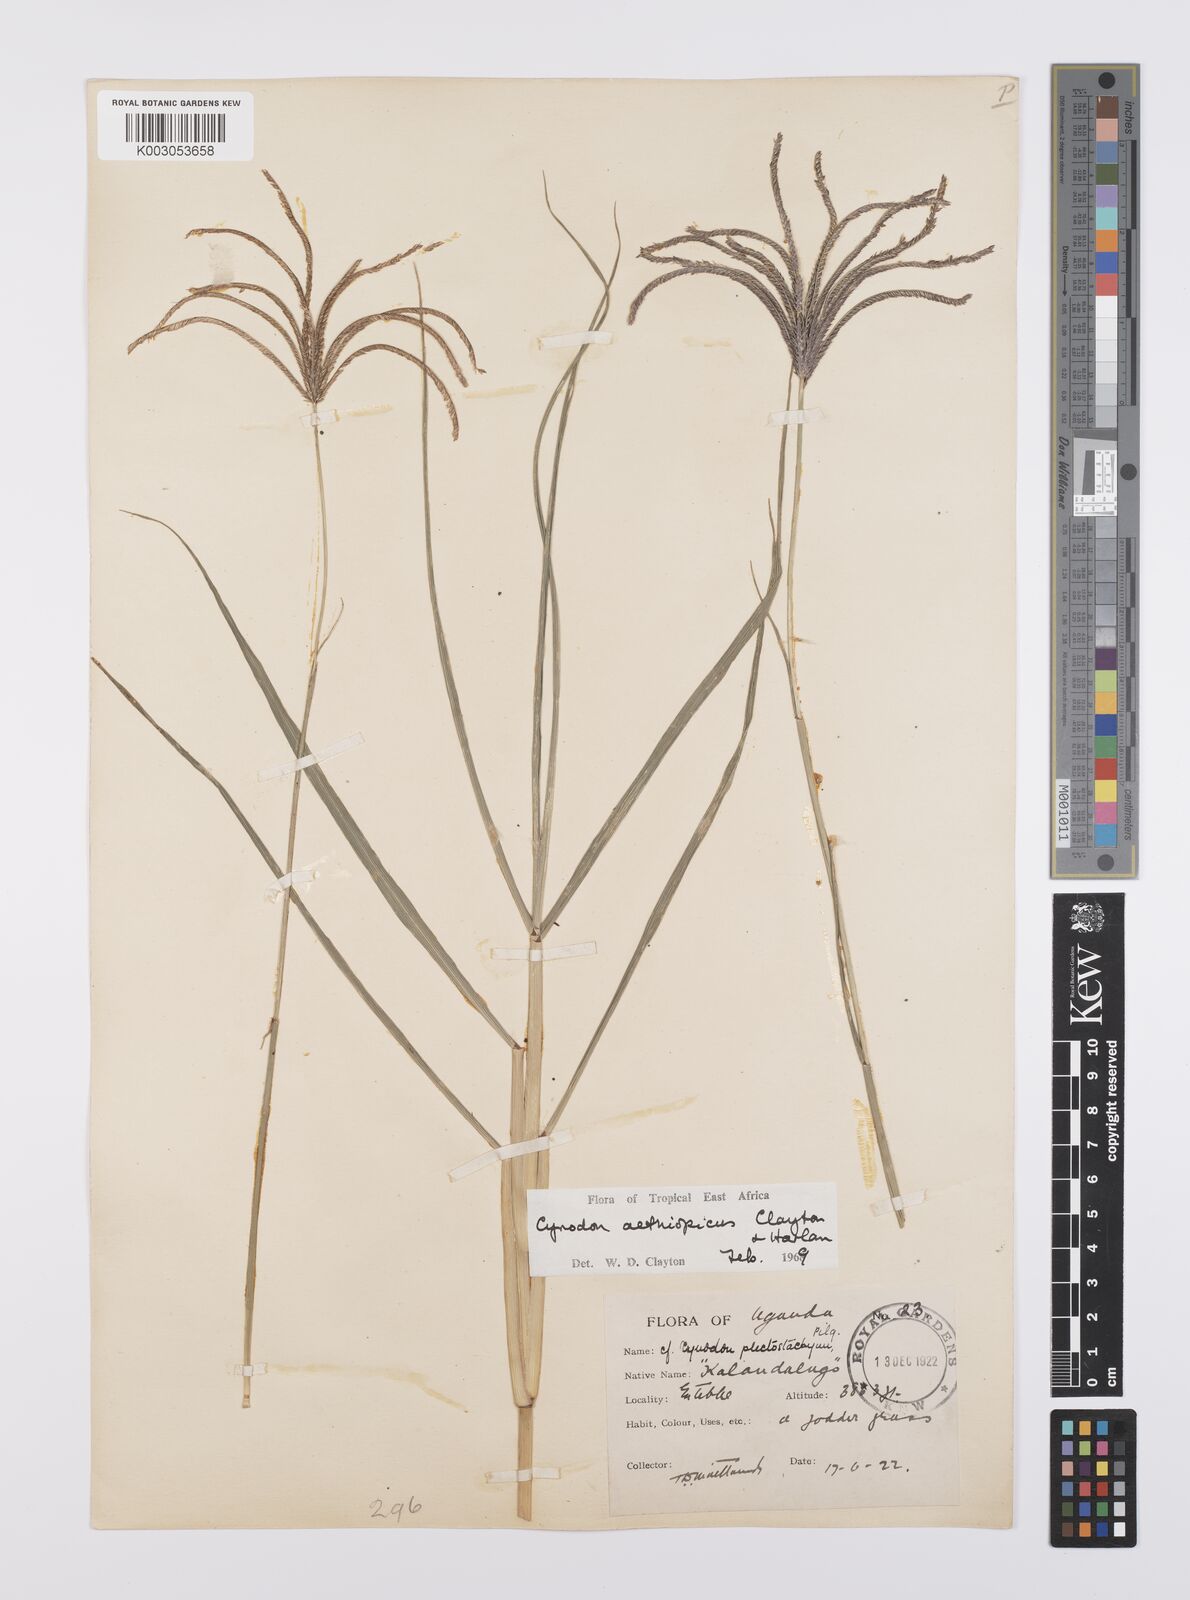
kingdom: Plantae
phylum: Tracheophyta
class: Liliopsida
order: Poales
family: Poaceae
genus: Cynodon
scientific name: Cynodon aethiopicus
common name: Ethiopian dogstooth grass
